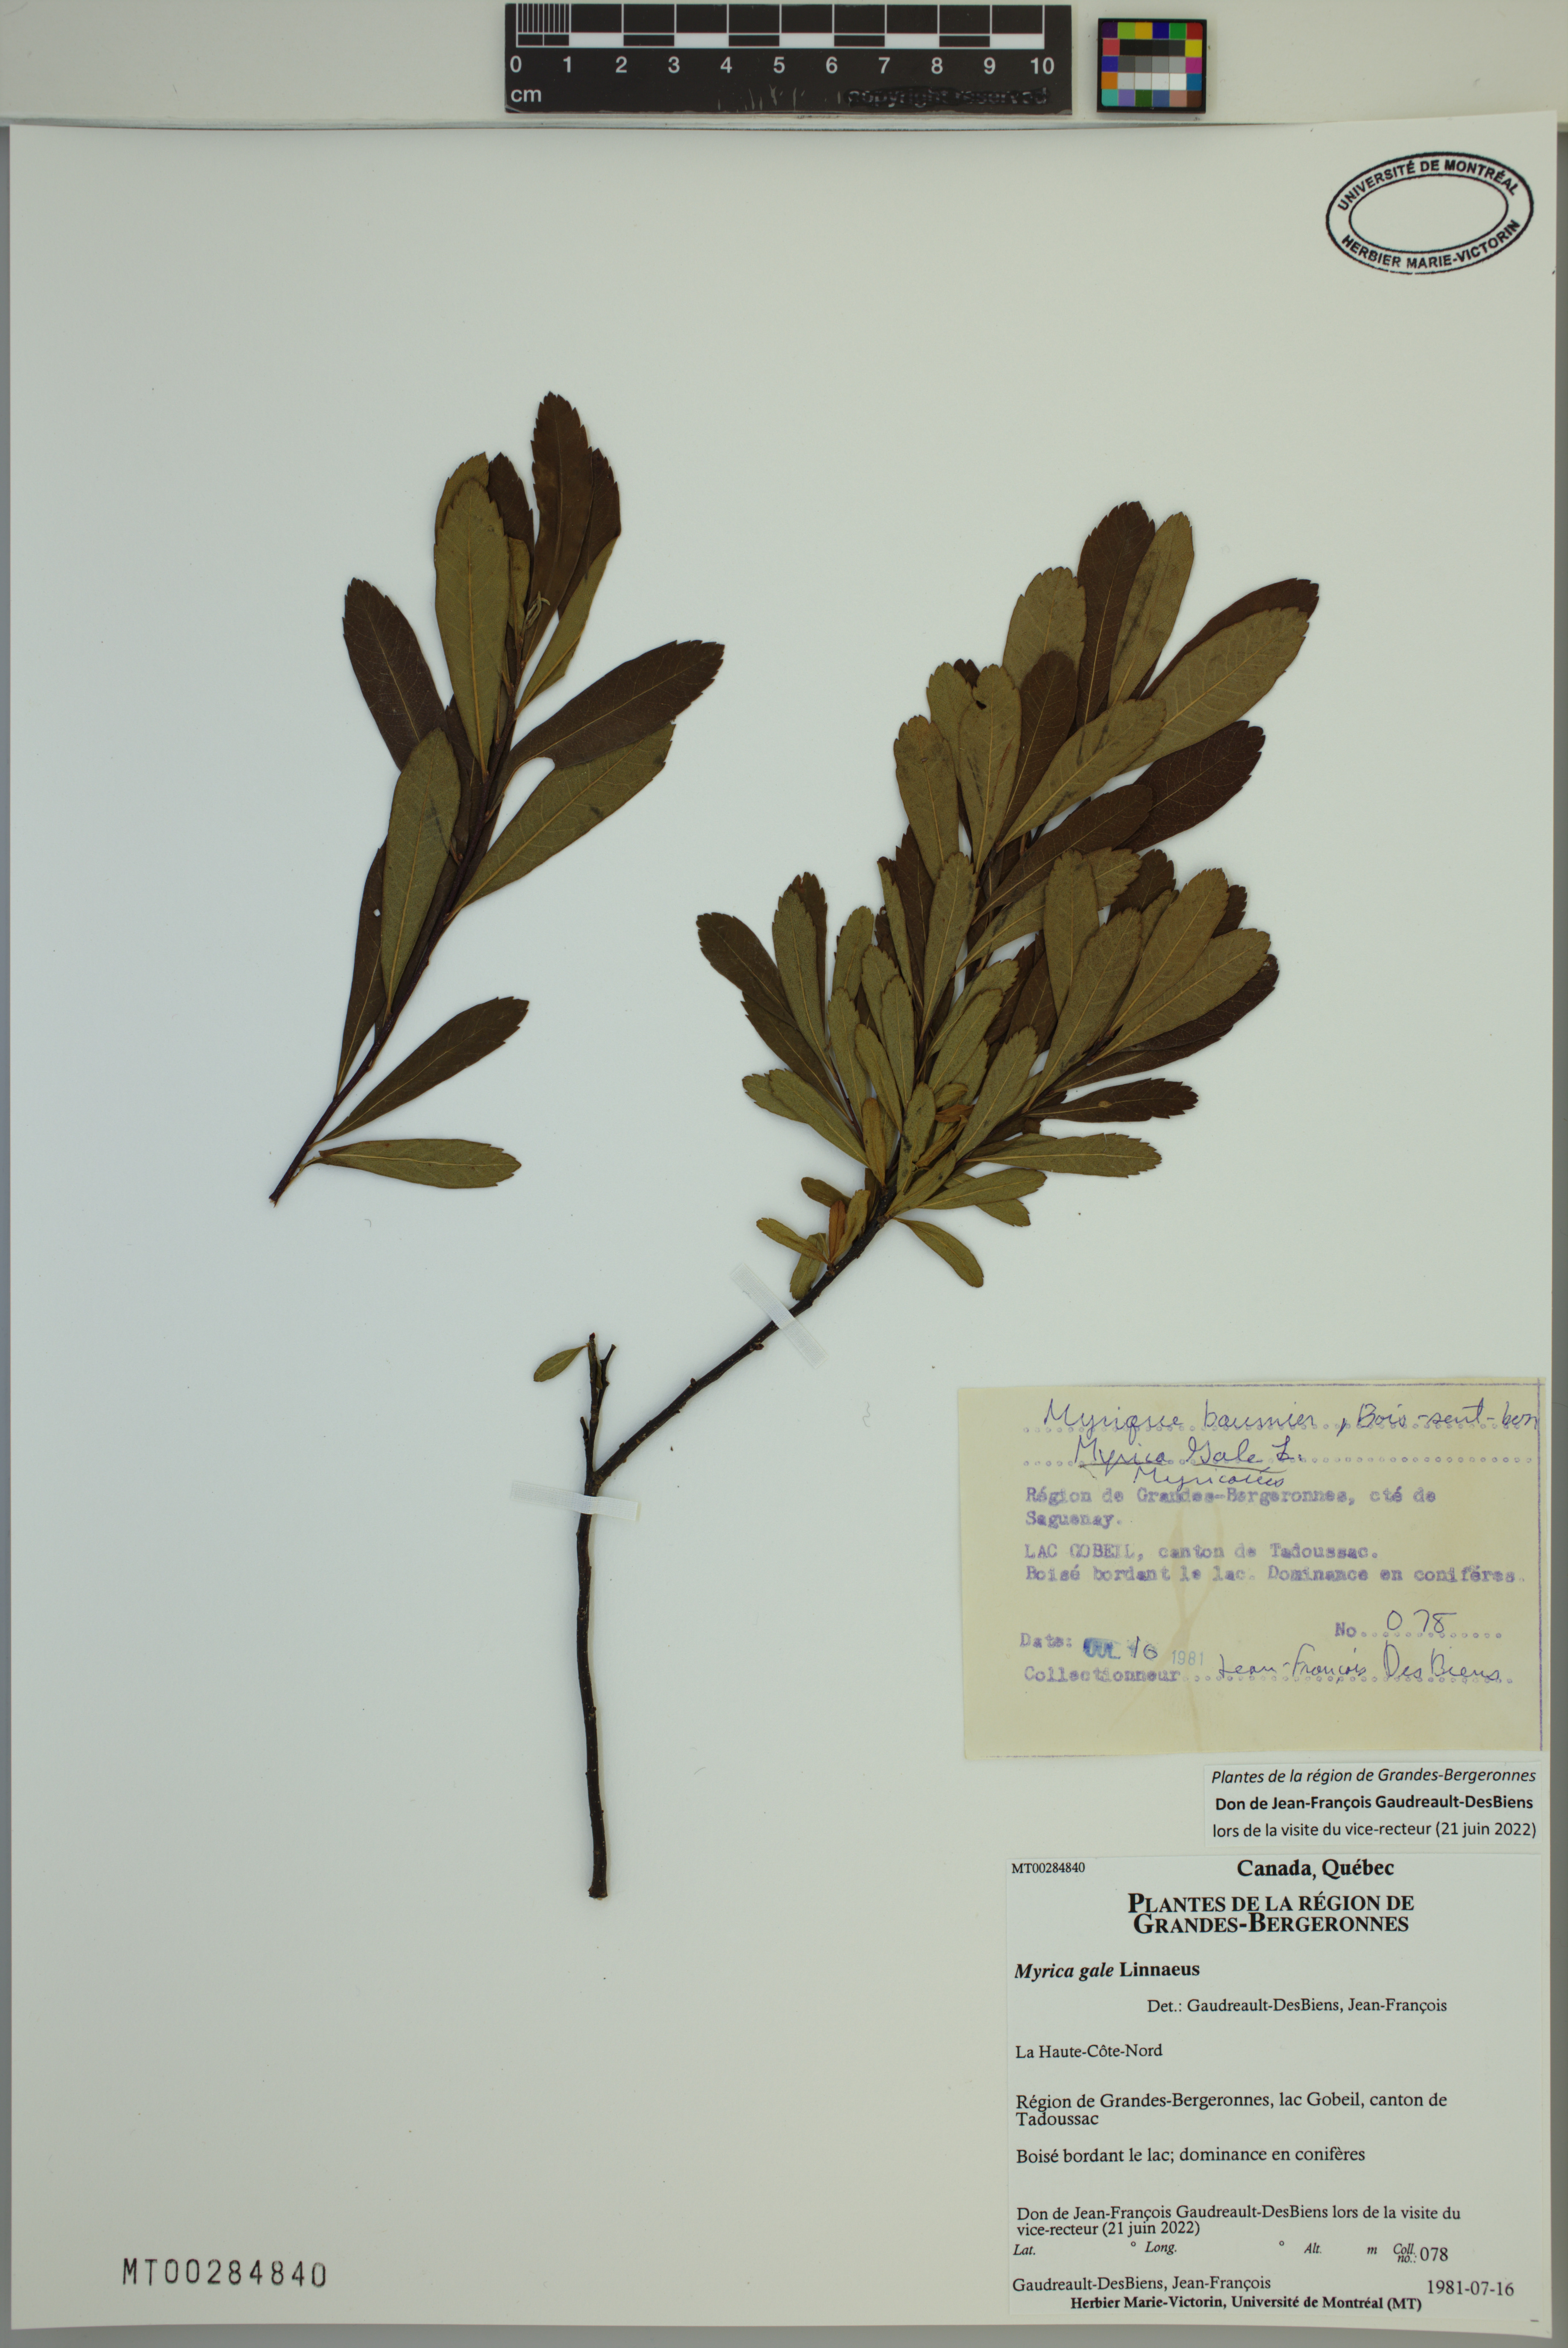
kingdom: Plantae
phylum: Tracheophyta
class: Magnoliopsida
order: Fagales
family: Myricaceae
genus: Myrica
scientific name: Myrica gale
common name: Sweet gale
